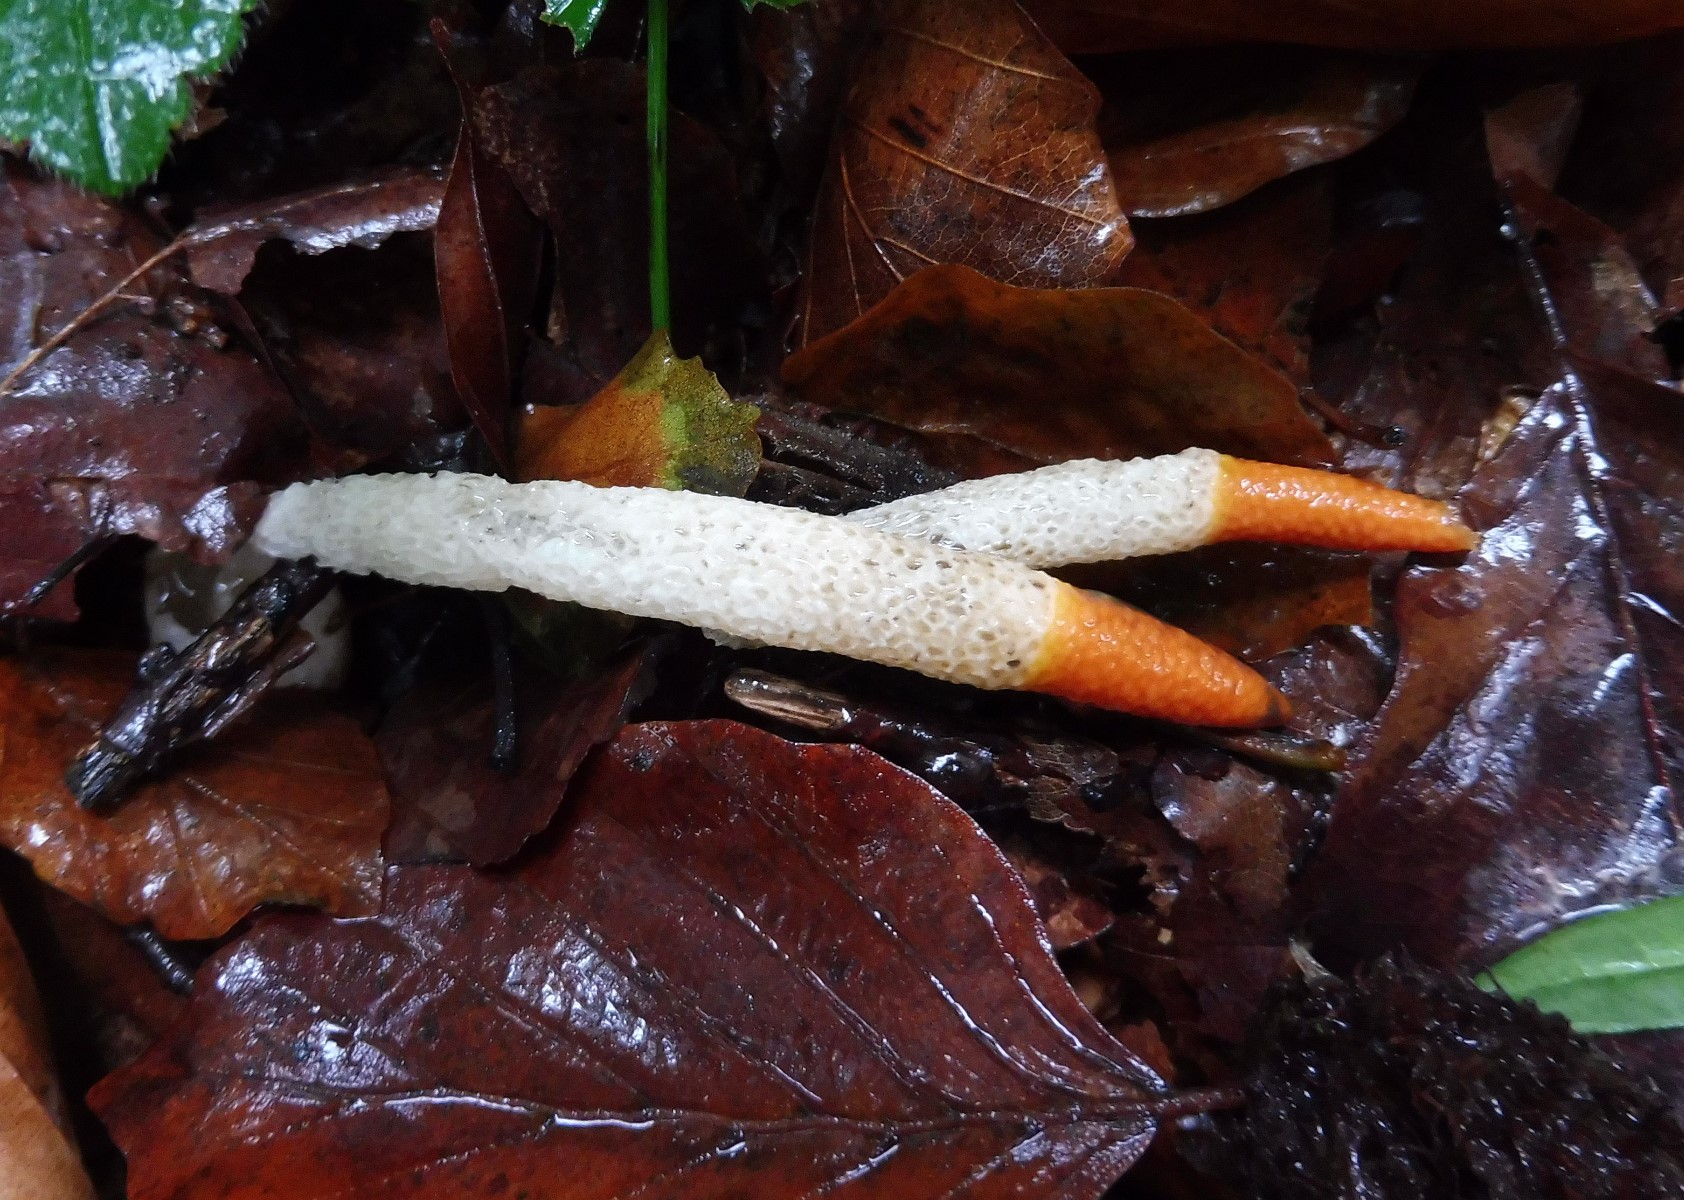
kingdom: Fungi
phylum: Basidiomycota
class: Agaricomycetes
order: Phallales
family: Phallaceae
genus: Mutinus
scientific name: Mutinus caninus
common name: hunde-stinksvamp
